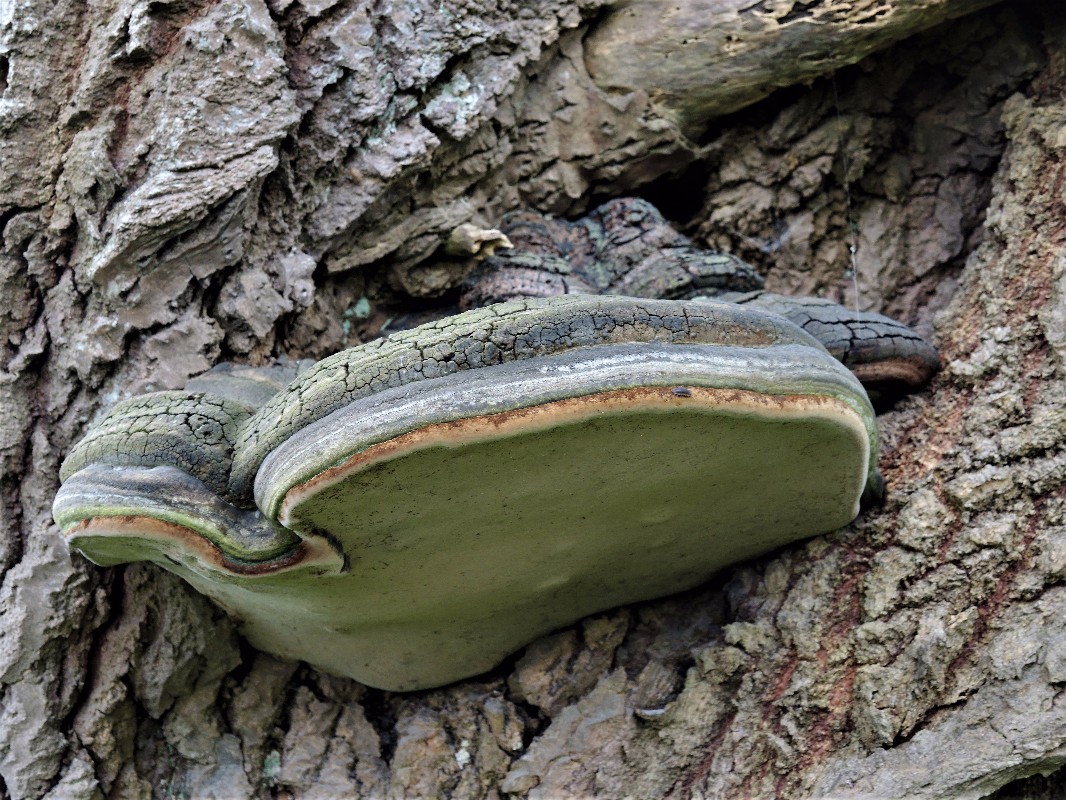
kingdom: Fungi
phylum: Basidiomycota
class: Agaricomycetes
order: Hymenochaetales
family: Hymenochaetaceae
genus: Phellinus
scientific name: Phellinus populicola
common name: poppel-ildporesvamp
